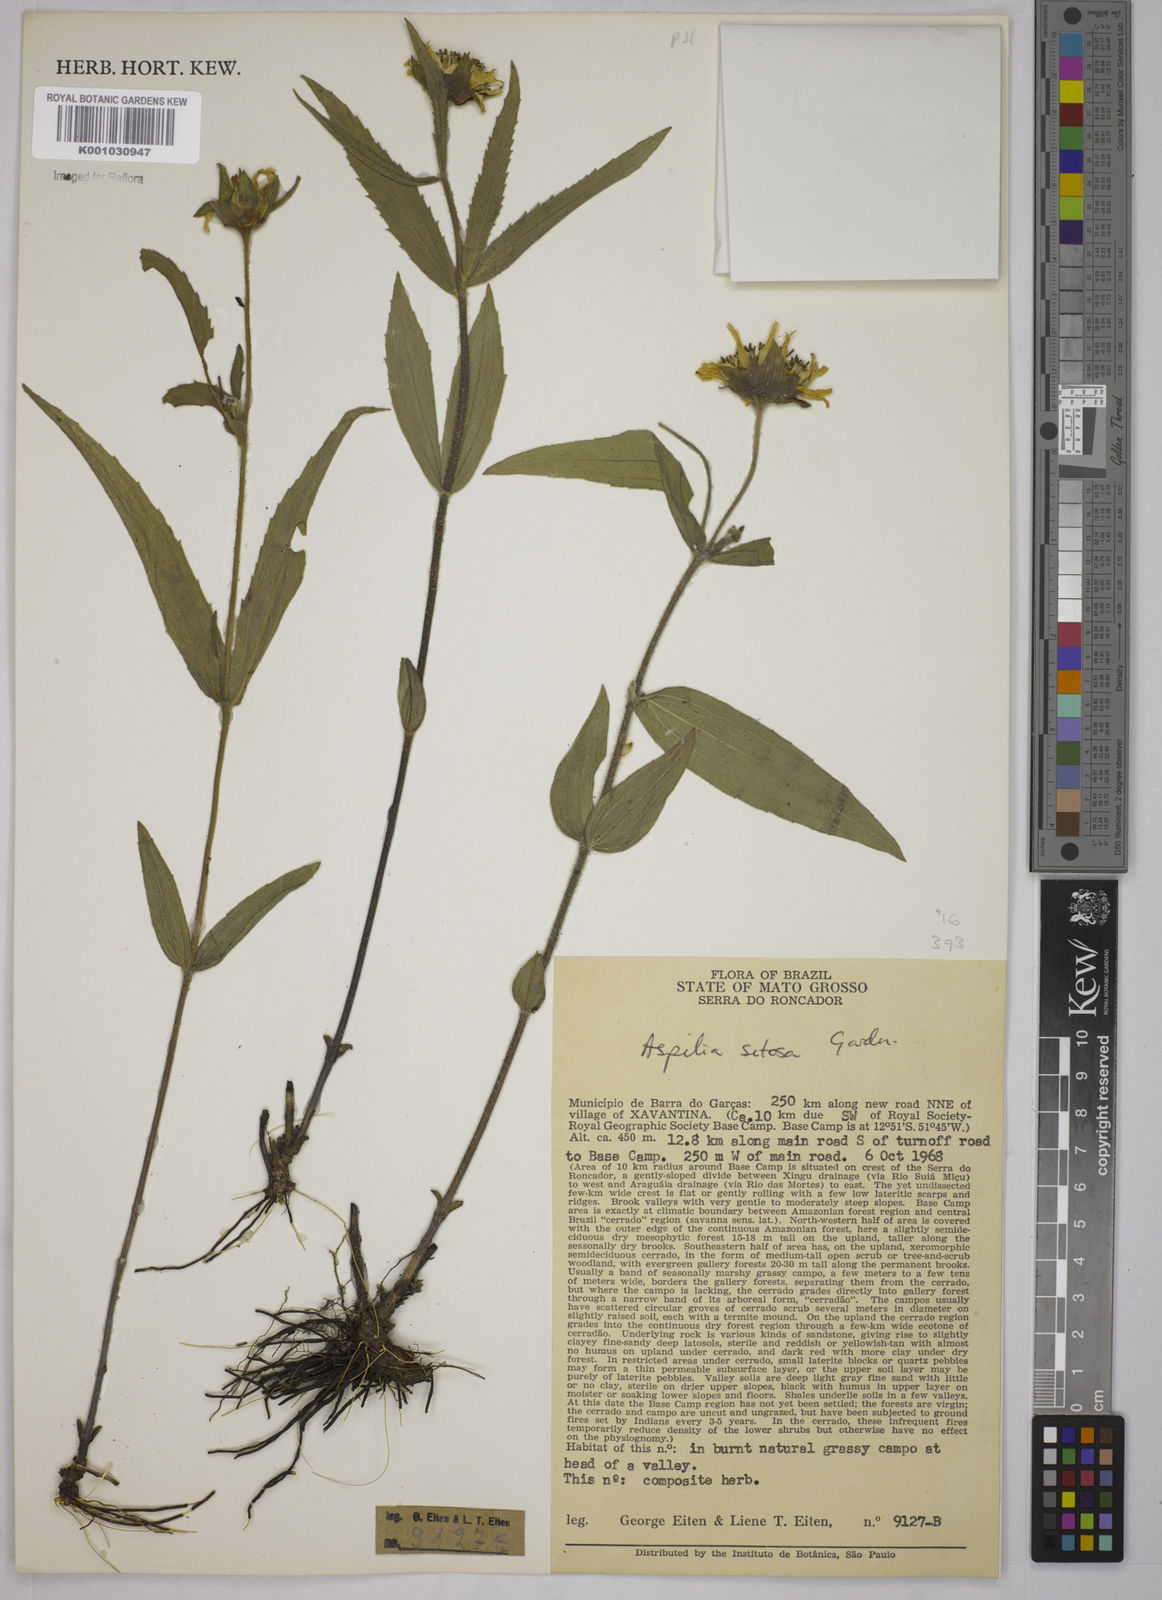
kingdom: Plantae
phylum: Tracheophyta
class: Magnoliopsida
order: Asterales
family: Asteraceae
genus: Aspilia
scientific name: Aspilia
